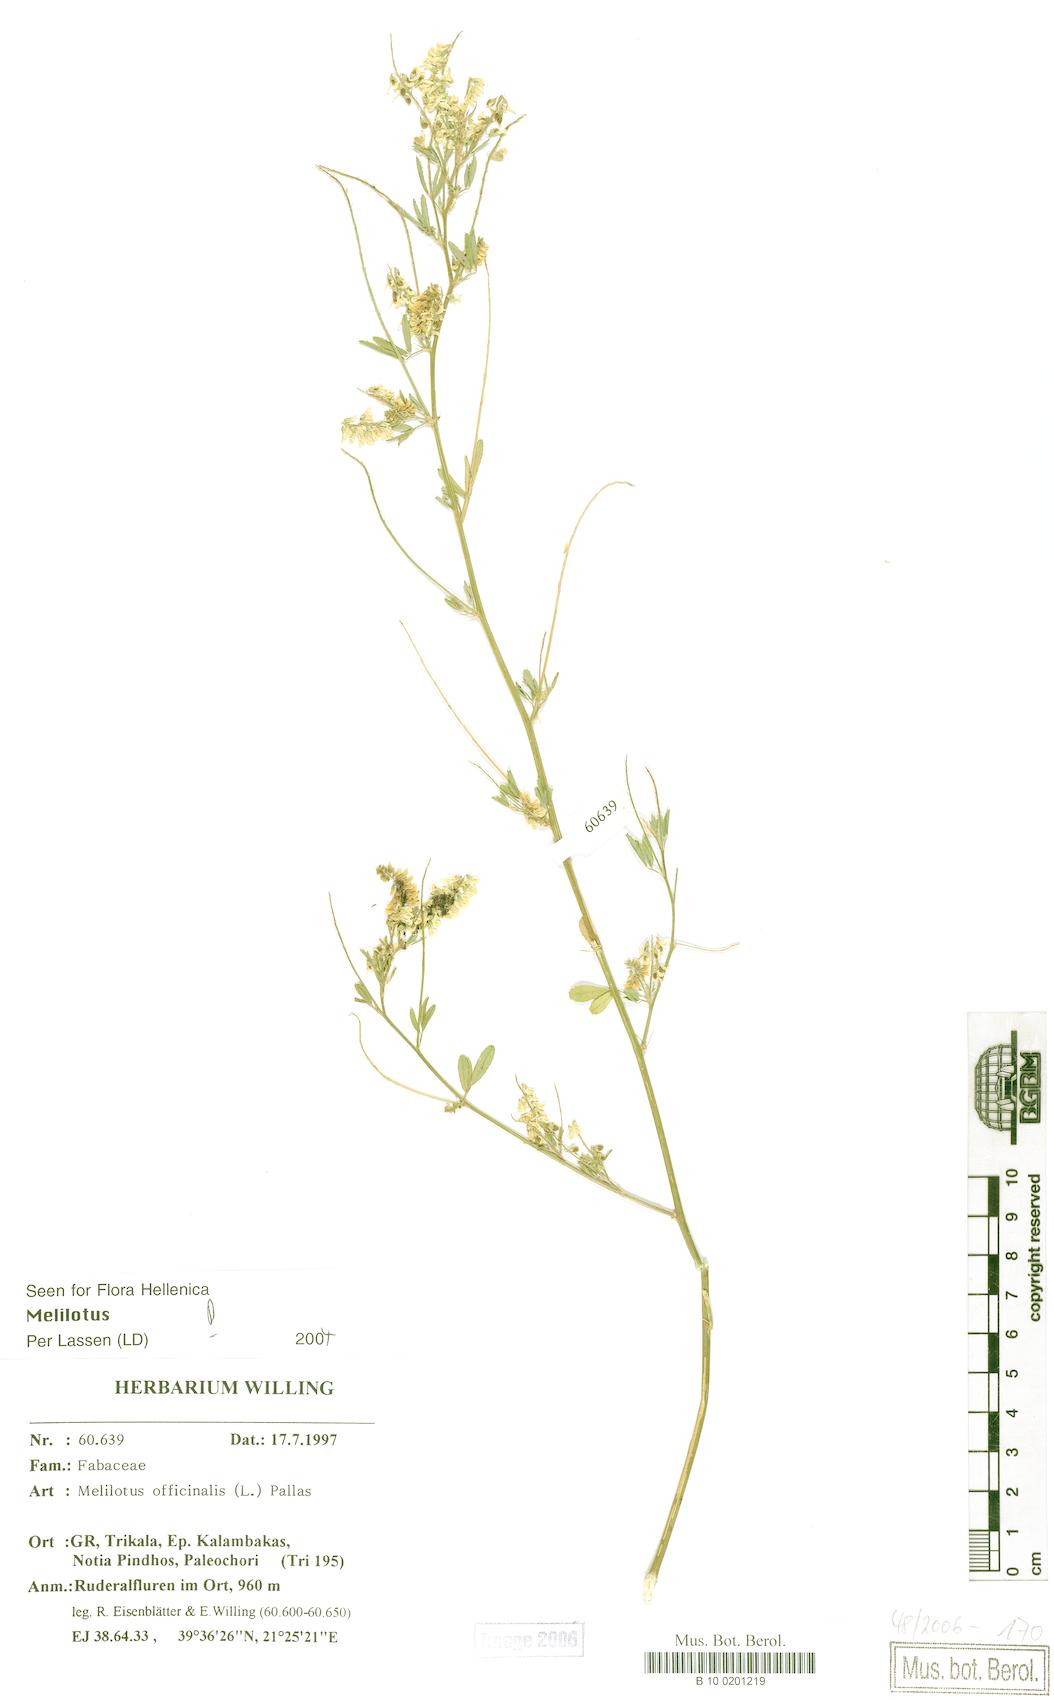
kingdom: Plantae
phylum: Tracheophyta
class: Magnoliopsida
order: Fabales
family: Fabaceae
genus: Melilotus
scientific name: Melilotus officinalis
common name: Sweetclover
